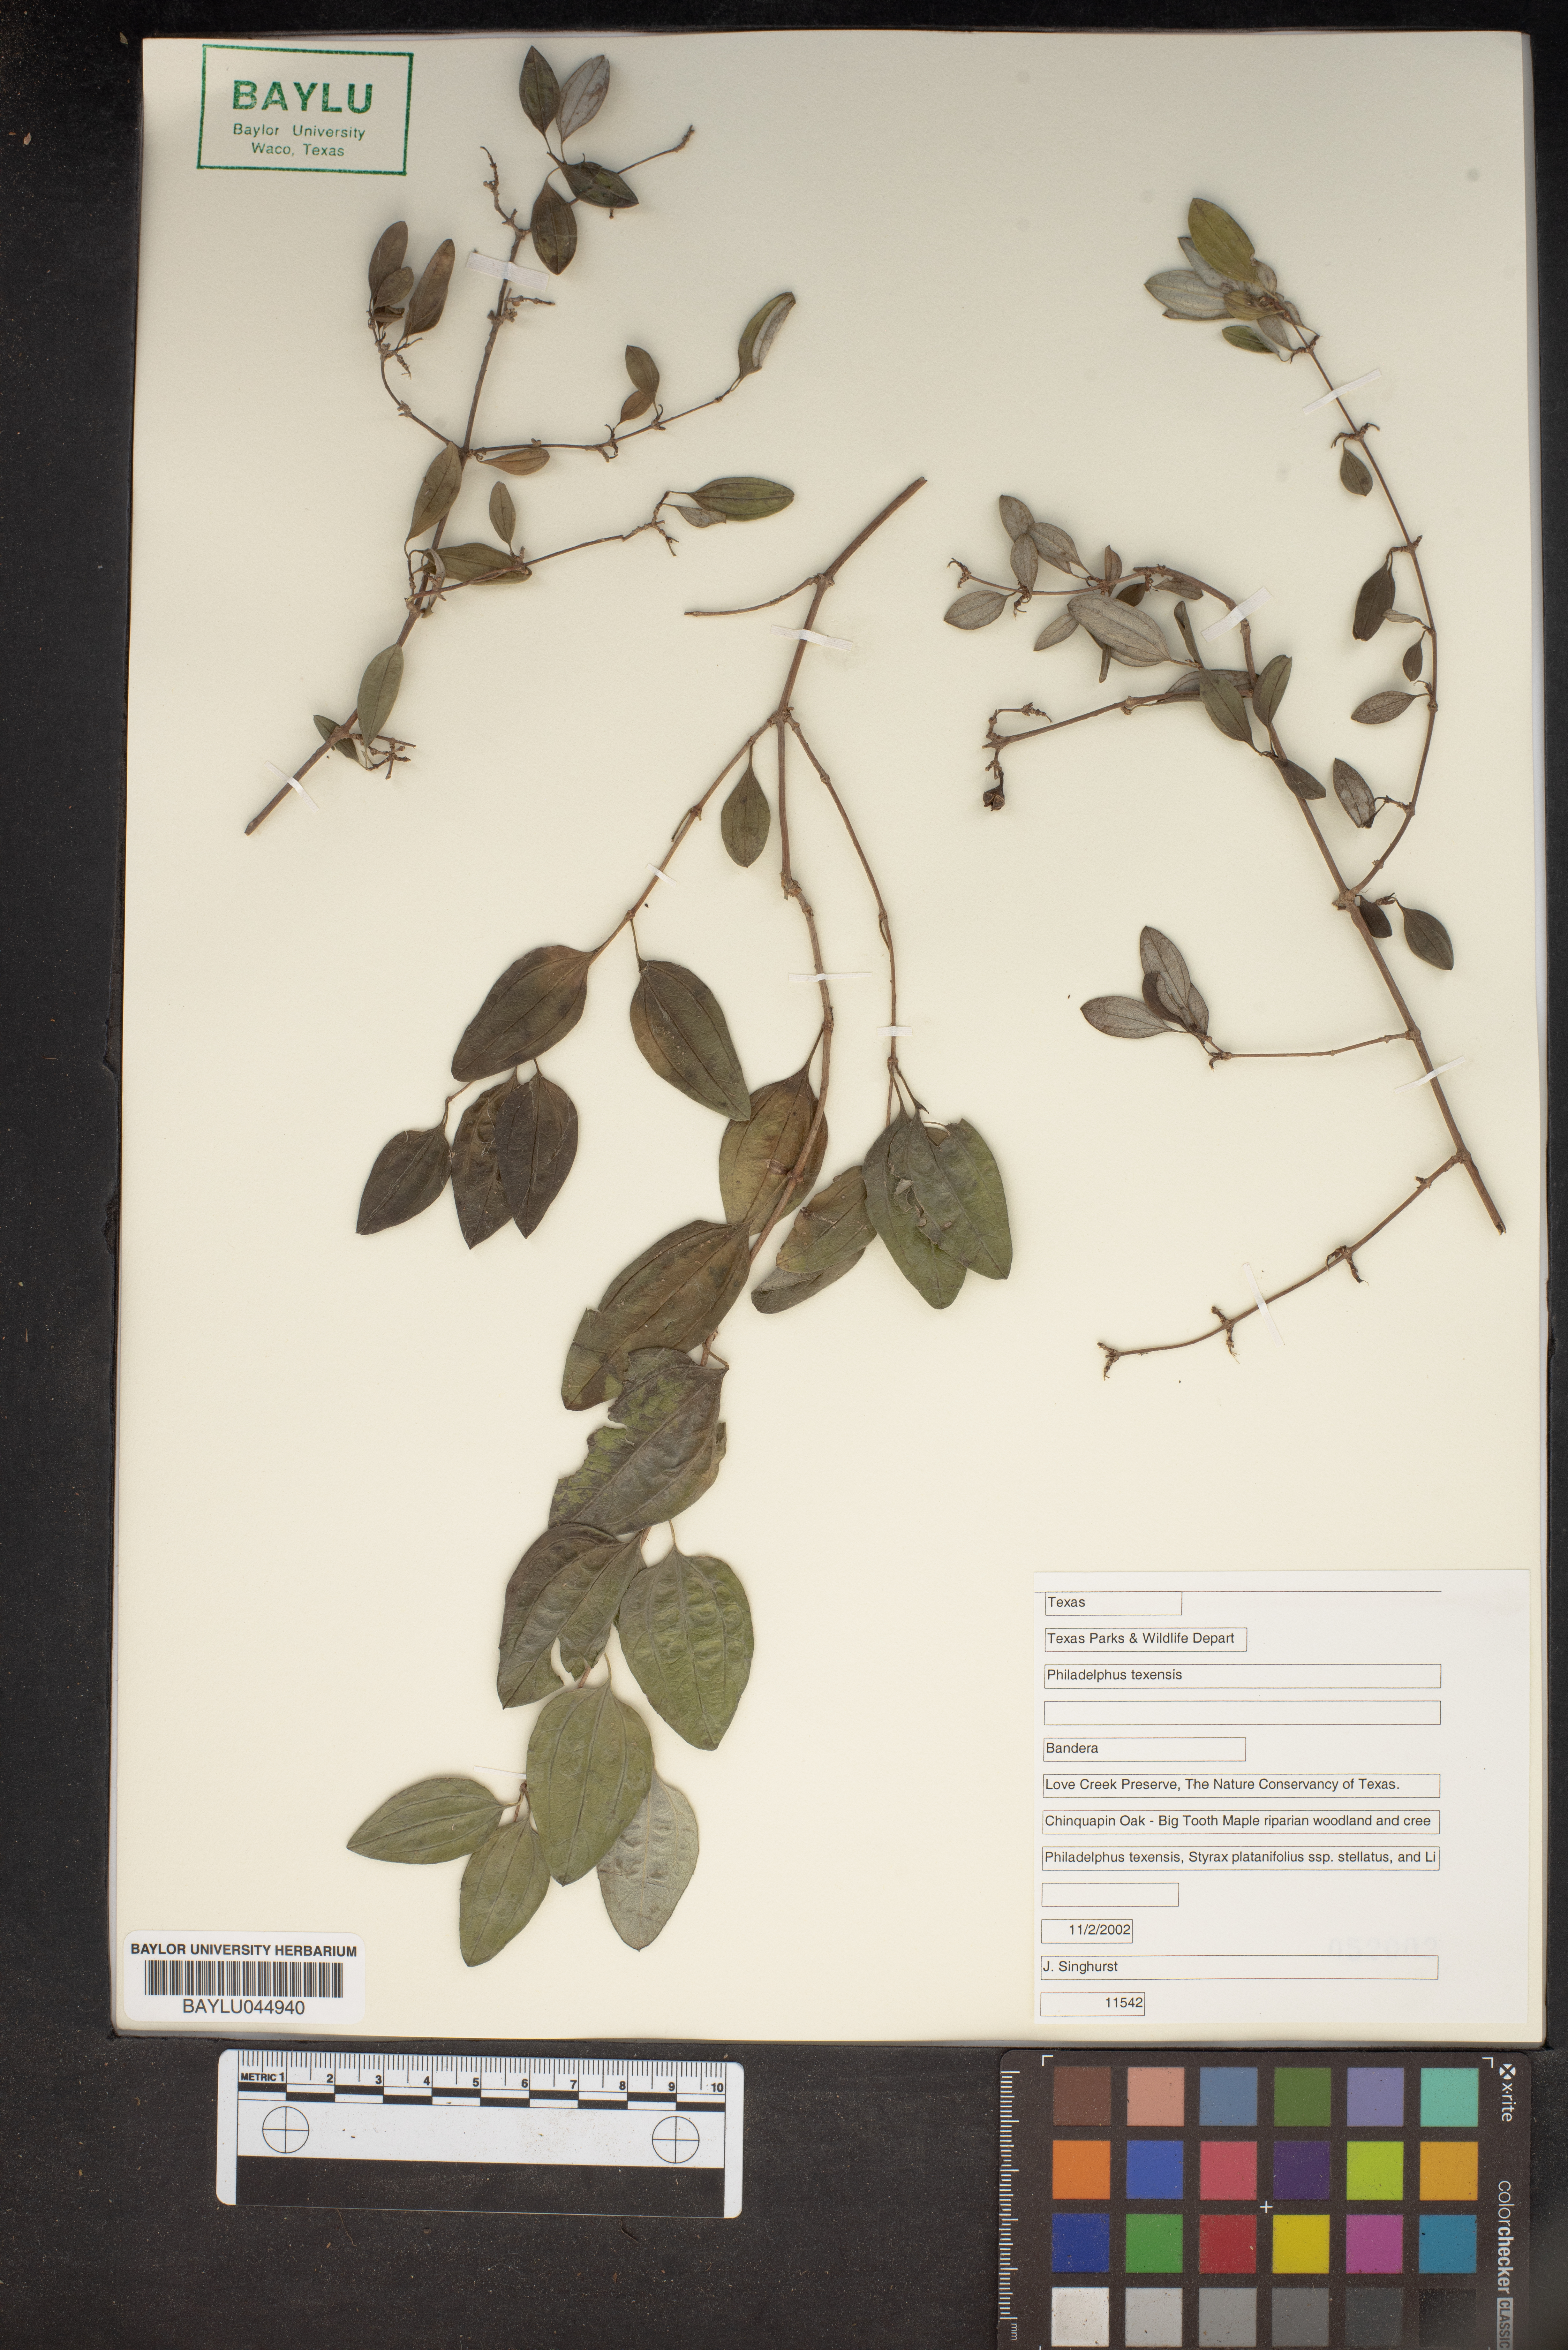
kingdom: Plantae
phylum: Tracheophyta
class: Magnoliopsida
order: Cornales
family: Hydrangeaceae
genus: Philadelphus
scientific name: Philadelphus texensis
